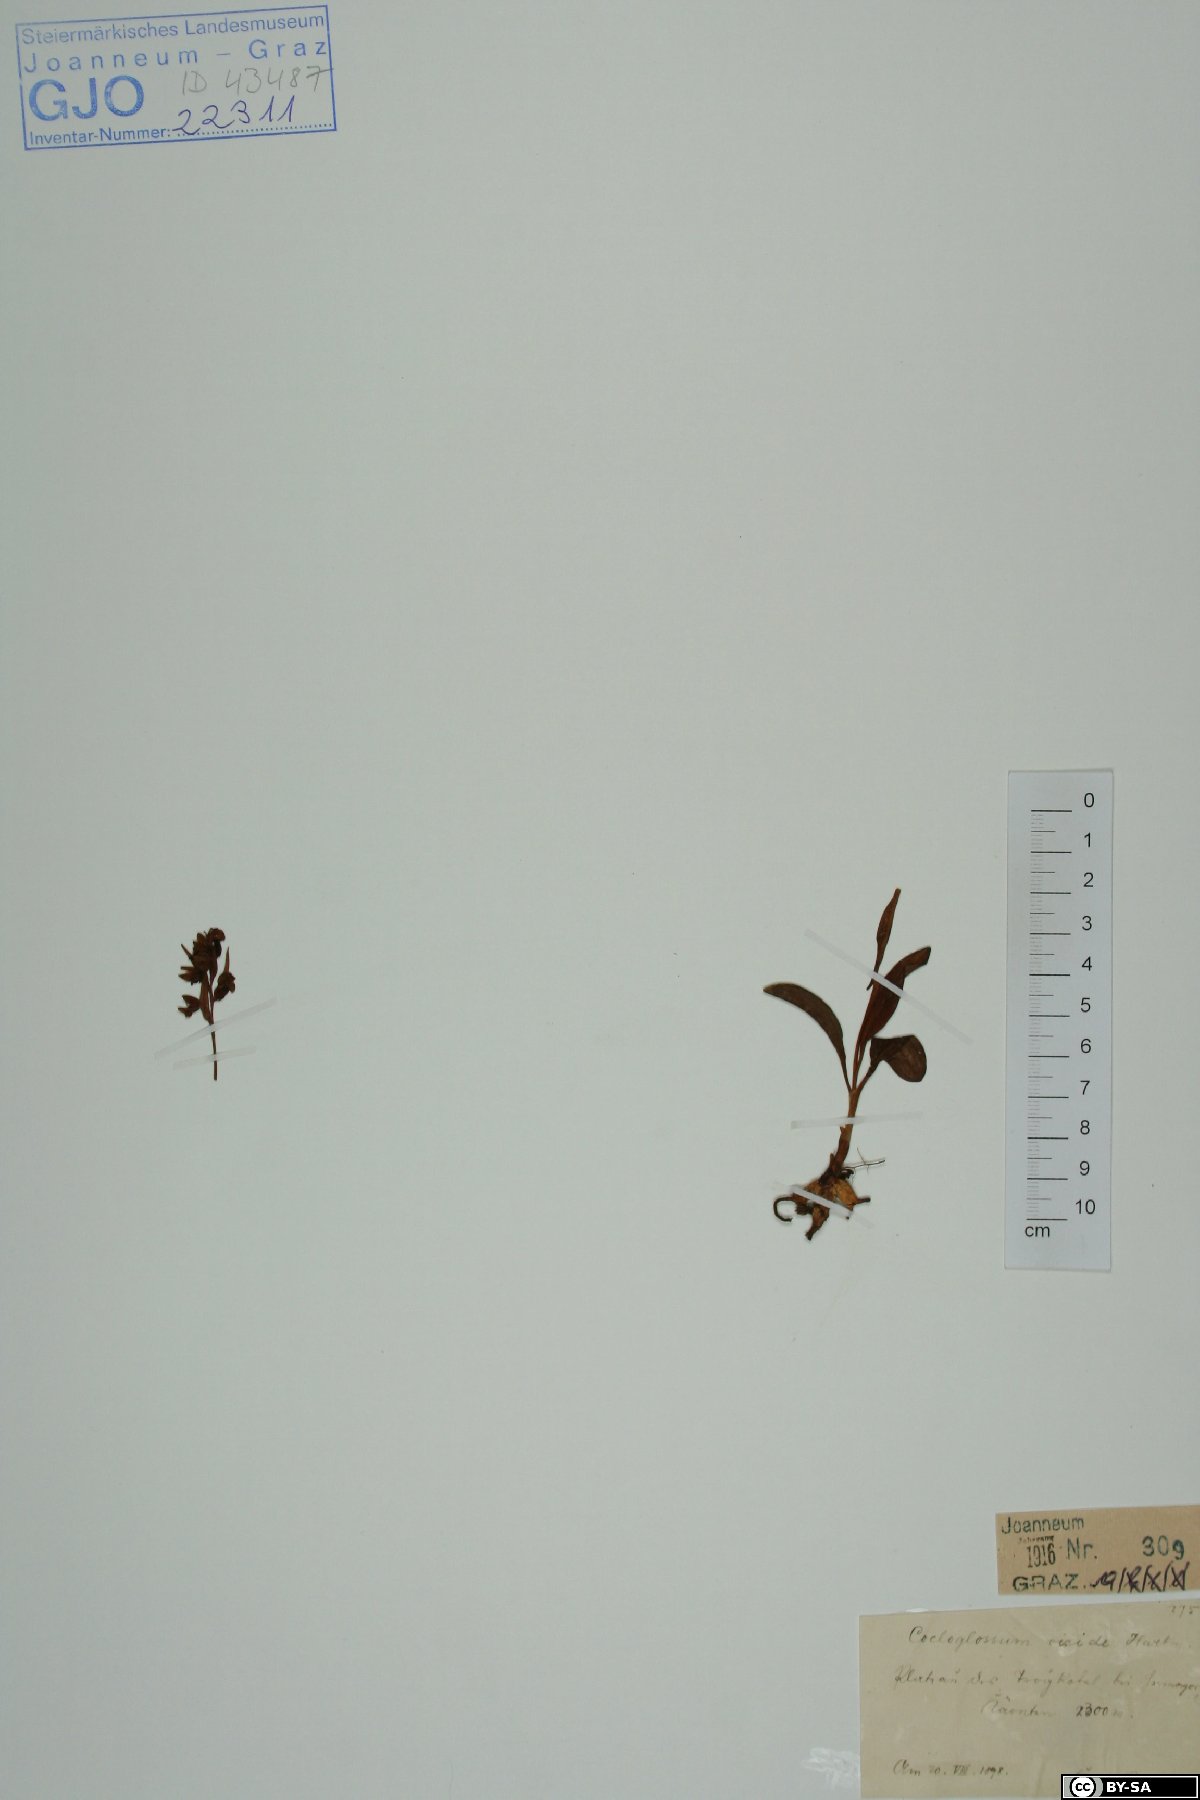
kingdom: Plantae
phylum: Tracheophyta
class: Liliopsida
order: Asparagales
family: Orchidaceae
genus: Dactylorhiza
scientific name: Dactylorhiza viridis
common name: Longbract frog orchid
